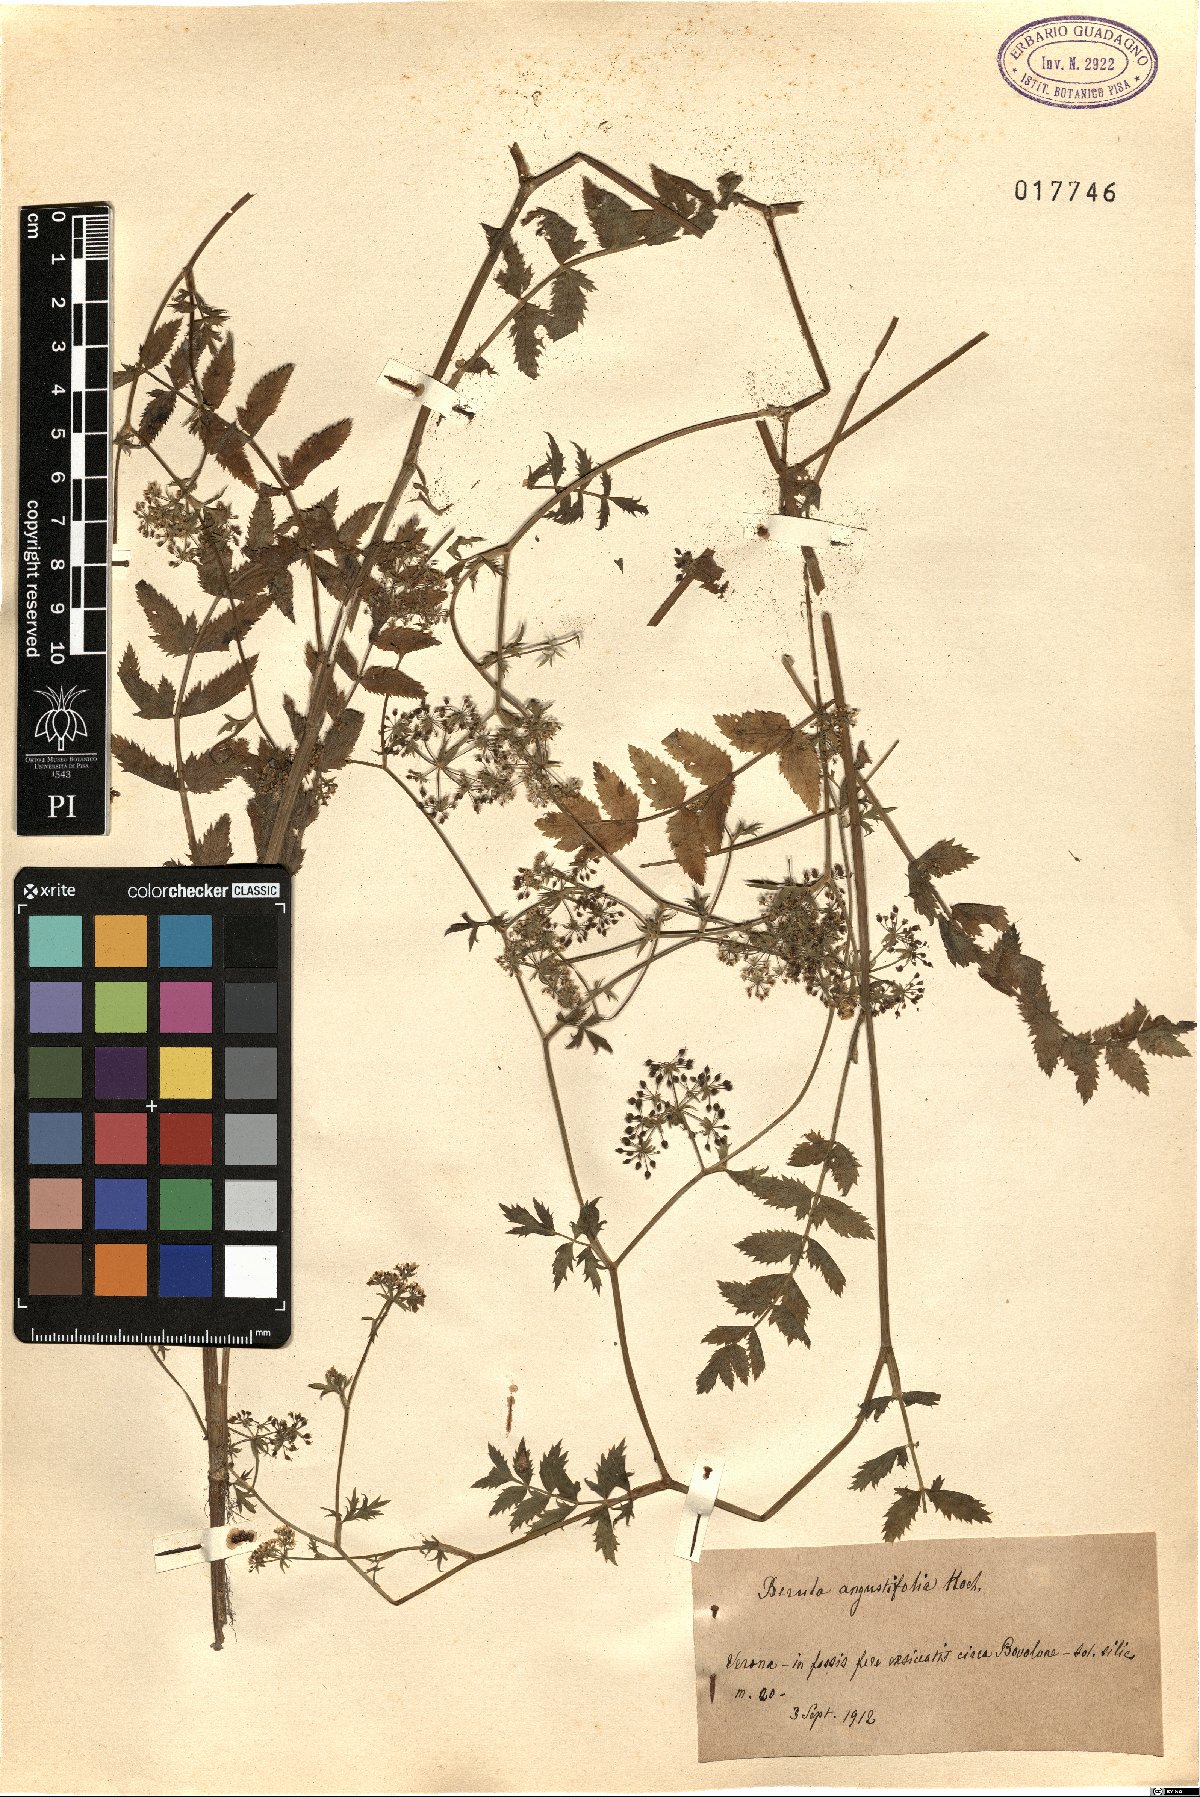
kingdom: Plantae
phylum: Tracheophyta
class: Magnoliopsida
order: Apiales
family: Apiaceae
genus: Berula
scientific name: Berula erecta
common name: Lesser water-parsnip
